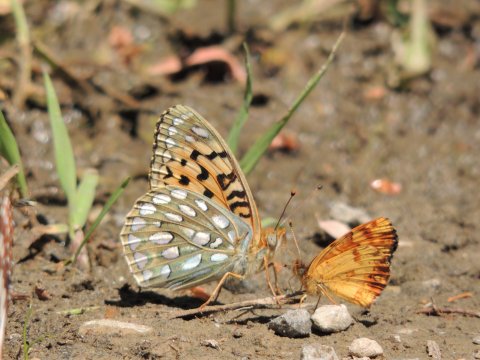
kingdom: Animalia
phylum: Arthropoda
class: Insecta
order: Lepidoptera
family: Nymphalidae
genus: Speyeria
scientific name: Speyeria callippe
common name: Callippe Fritillary
